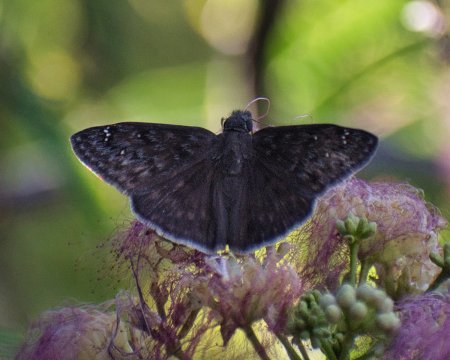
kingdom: Animalia
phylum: Arthropoda
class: Insecta
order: Lepidoptera
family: Hesperiidae
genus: Erynnis
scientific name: Erynnis meridianus
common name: Meridian Duskywing
